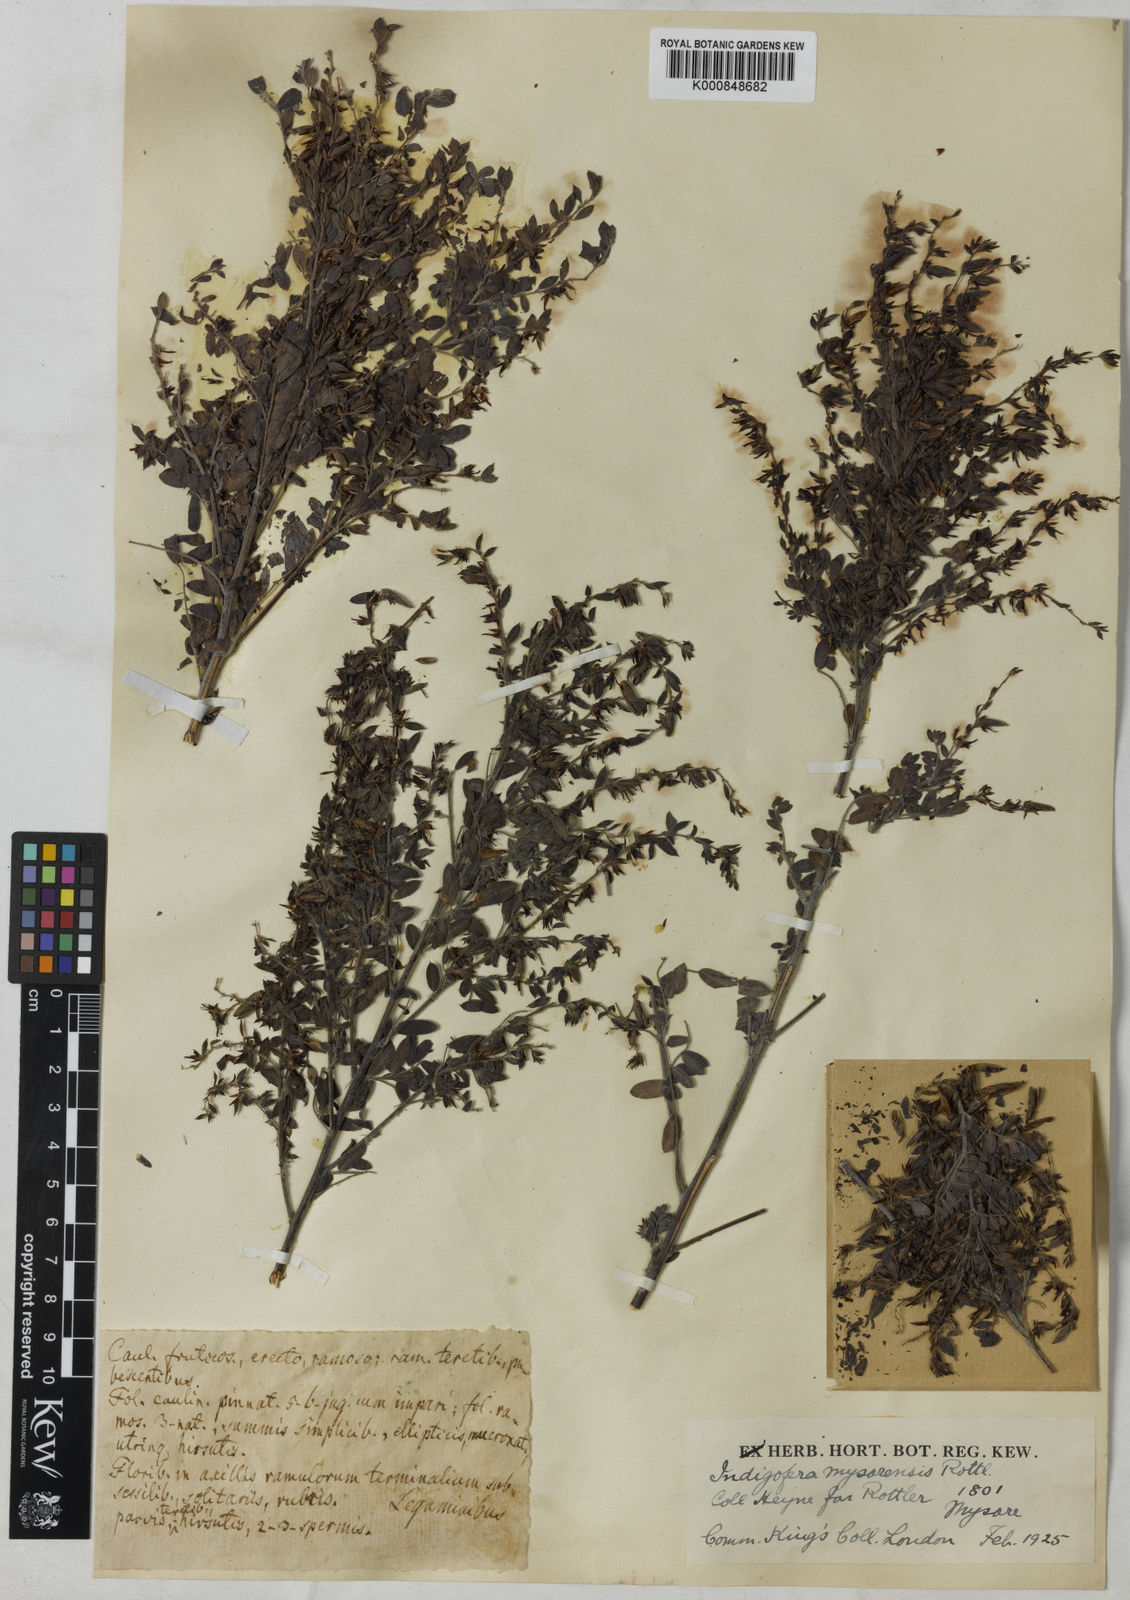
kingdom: Plantae
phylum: Tracheophyta
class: Magnoliopsida
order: Fabales
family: Fabaceae
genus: Indigofera
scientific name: Indigofera mysorensis
